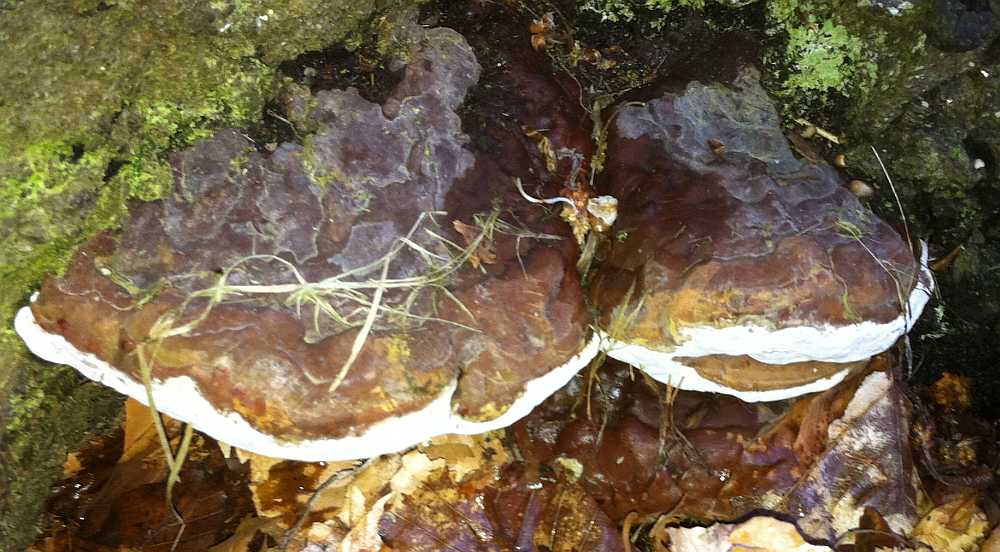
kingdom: Fungi
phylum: Basidiomycota
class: Agaricomycetes
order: Polyporales
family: Polyporaceae
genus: Ganoderma
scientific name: Ganoderma pfeifferi
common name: kobberrød lakporesvamp
